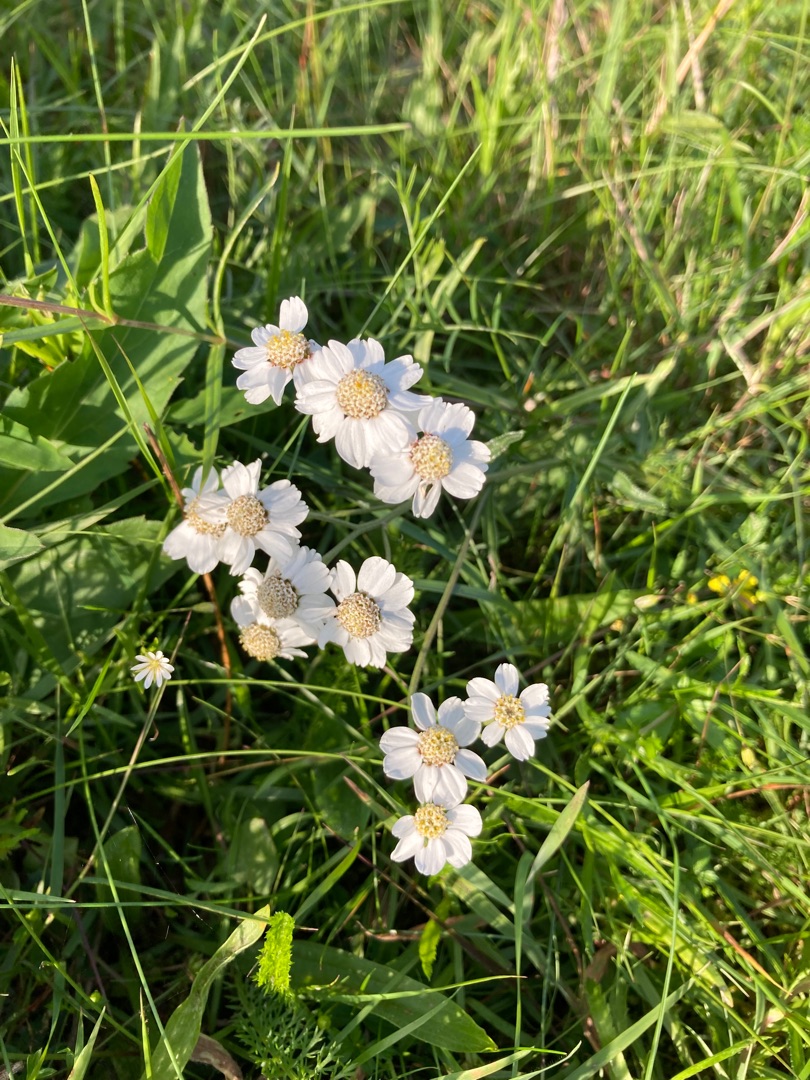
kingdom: Plantae
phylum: Tracheophyta
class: Magnoliopsida
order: Asterales
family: Asteraceae
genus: Achillea
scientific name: Achillea ptarmica
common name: Nyse-røllike
